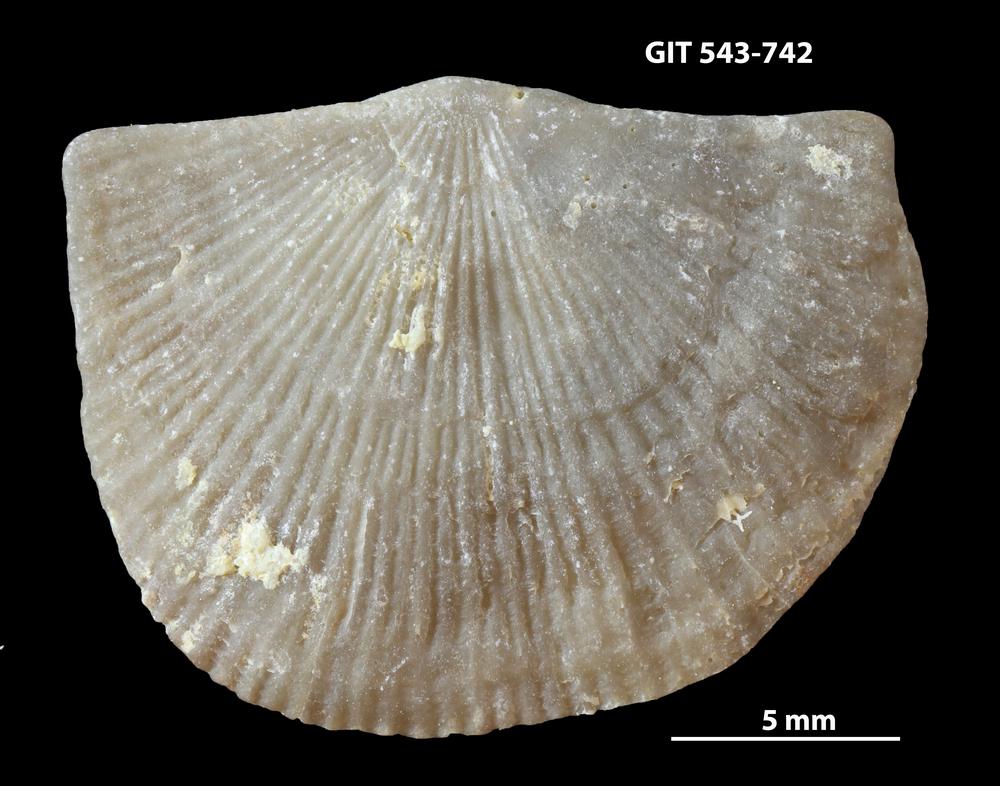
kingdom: Animalia
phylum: Brachiopoda
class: Rhynchonellata
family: Clitambonitidae
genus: Vellamo
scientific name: Vellamo oandoensis
